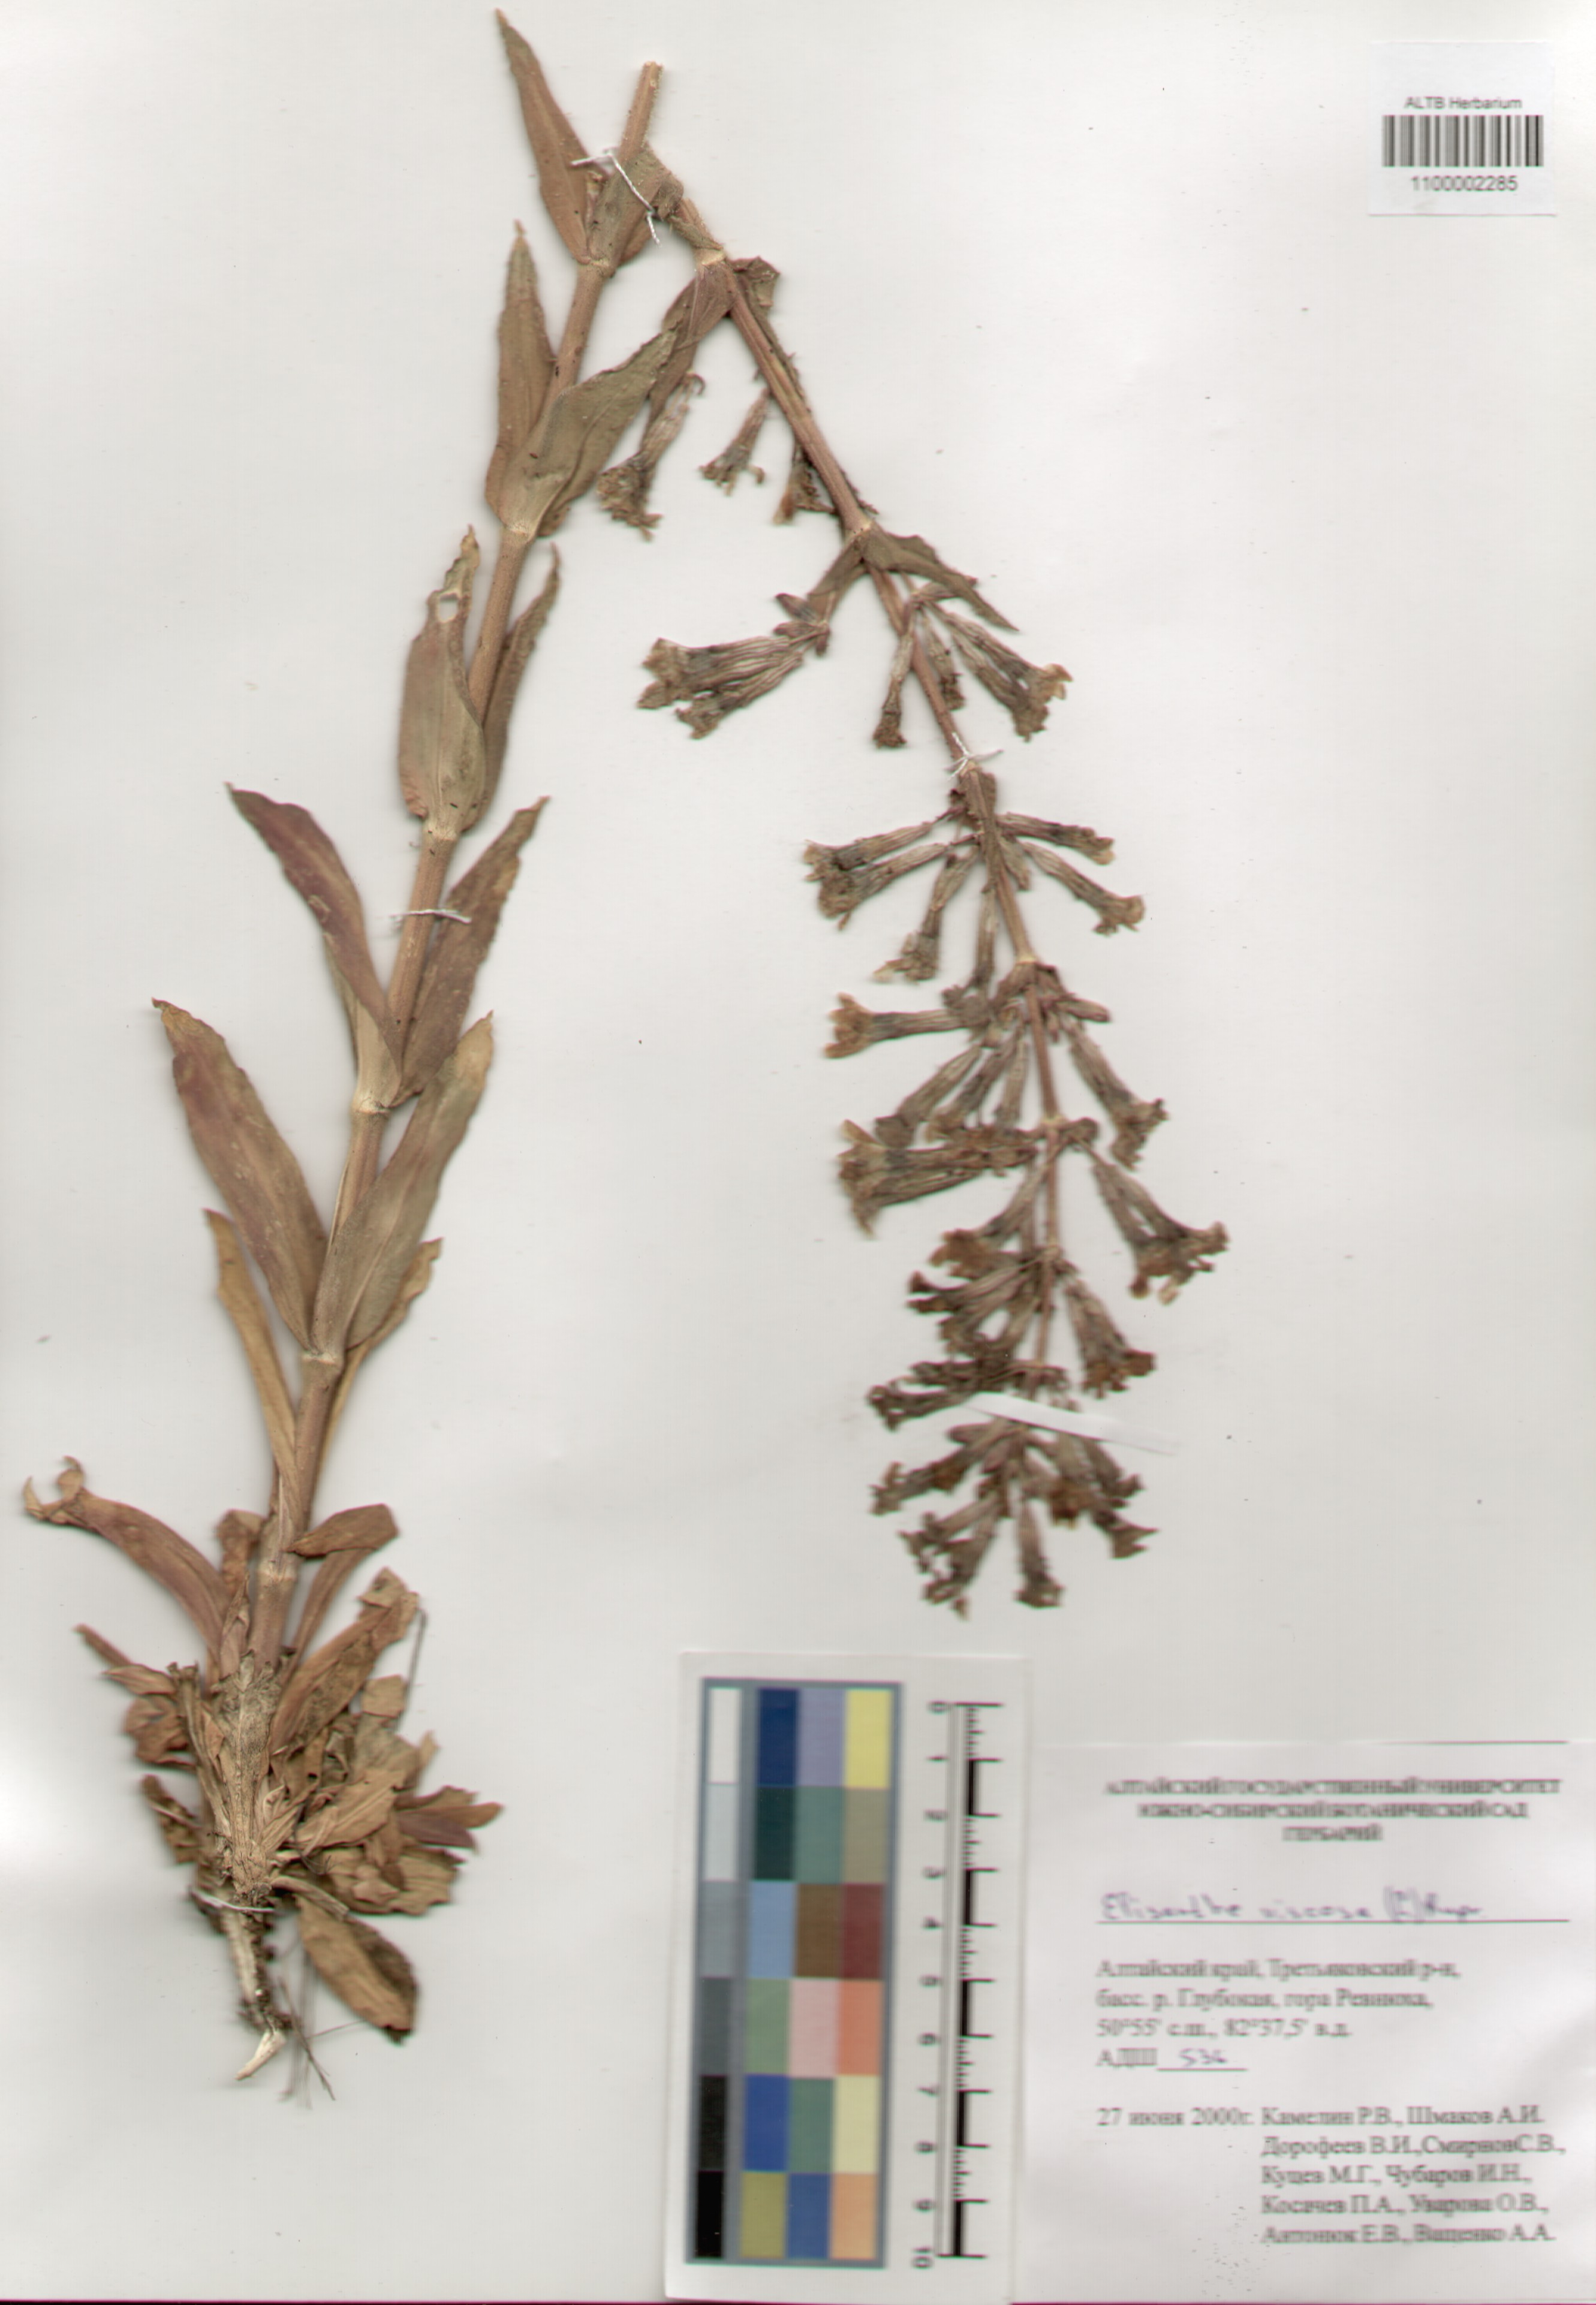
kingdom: Plantae
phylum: Tracheophyta
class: Magnoliopsida
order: Caryophyllales
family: Caryophyllaceae
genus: Silene
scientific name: Silene viscosa
